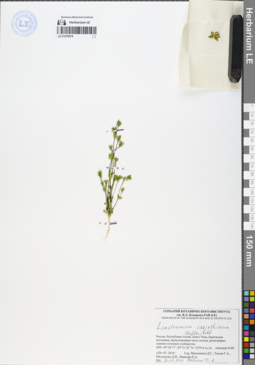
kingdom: Plantae
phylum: Tracheophyta
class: Magnoliopsida
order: Gentianales
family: Gentianaceae
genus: Lomatogonium
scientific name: Lomatogonium carinthiacum
